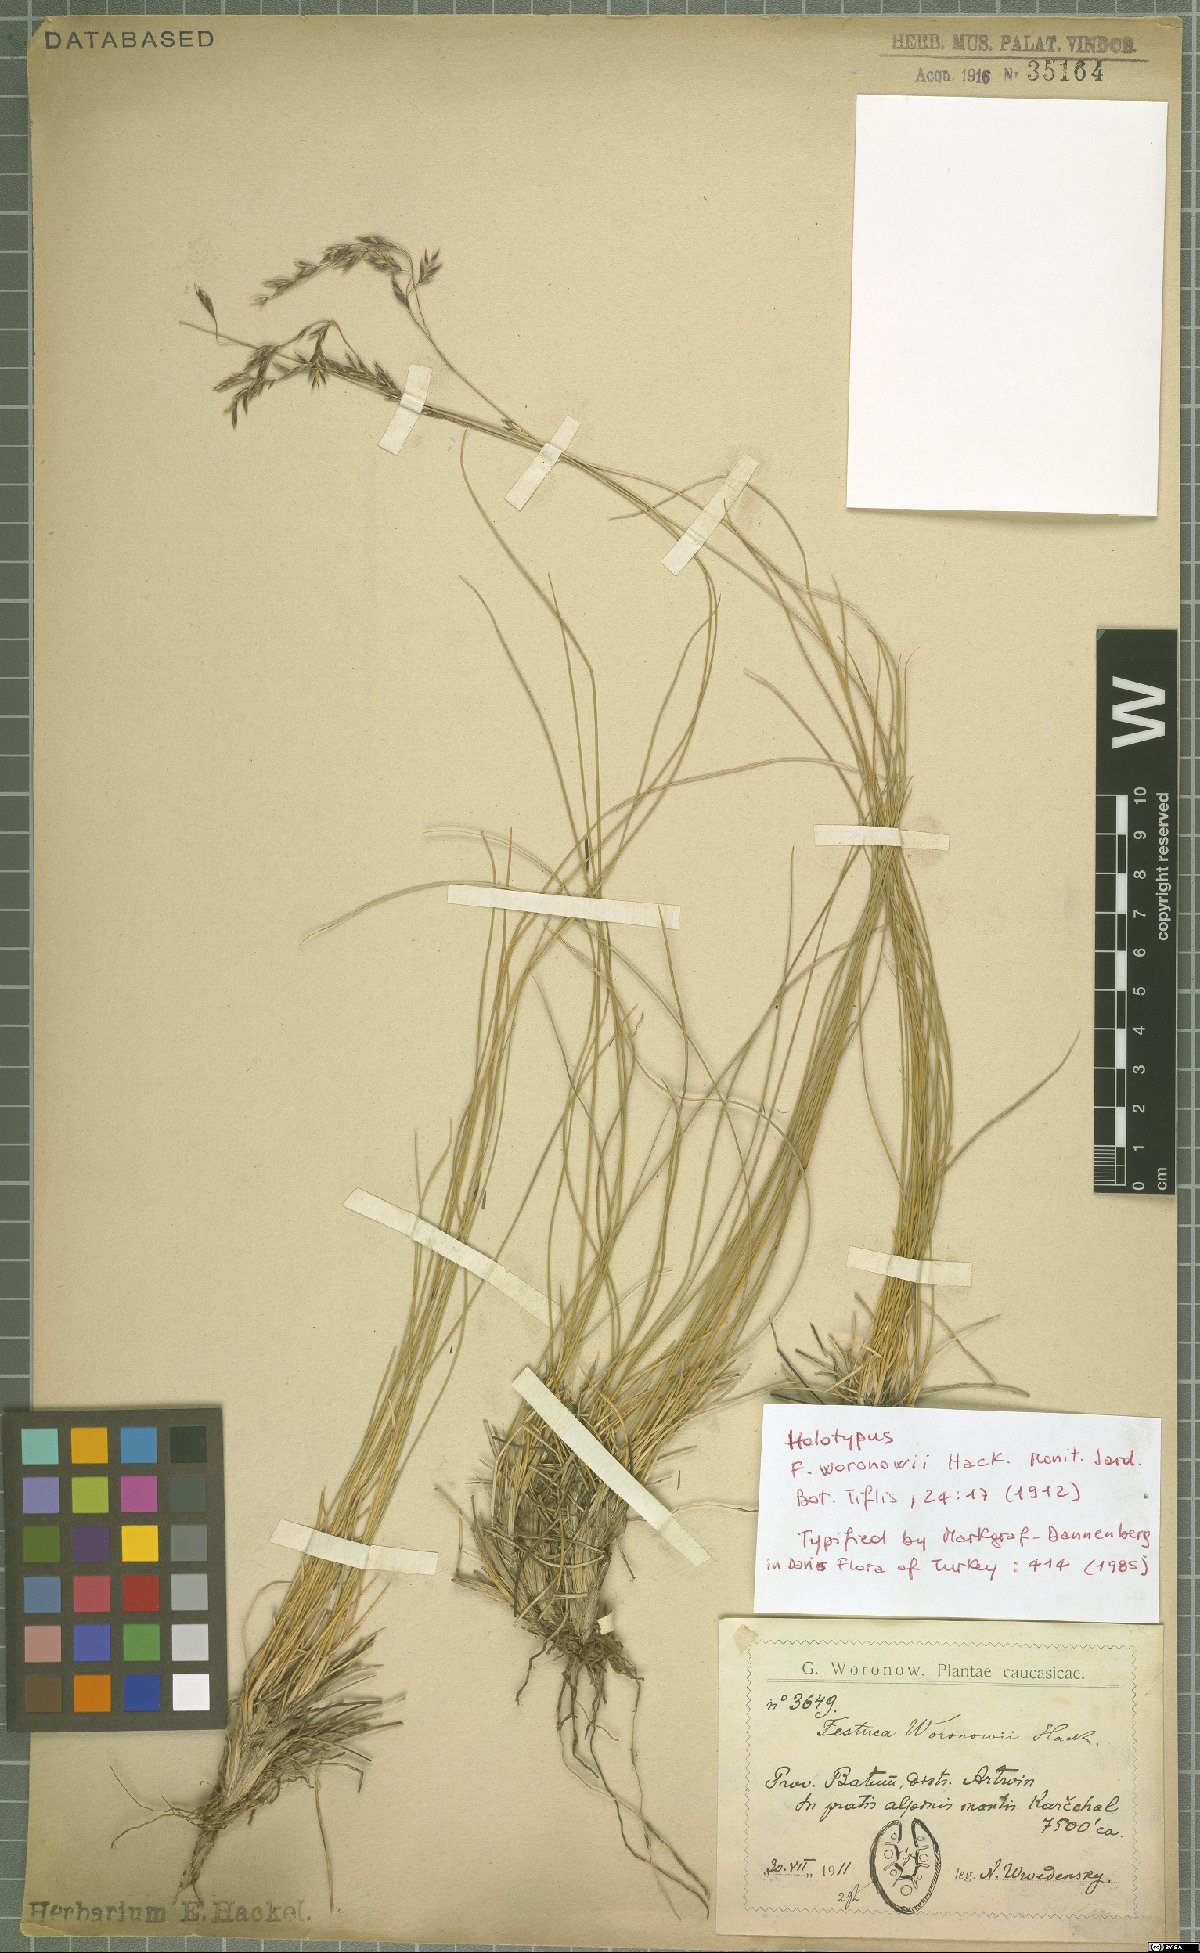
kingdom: Plantae
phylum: Tracheophyta
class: Liliopsida
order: Poales
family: Poaceae
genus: Festuca
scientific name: Festuca varia
